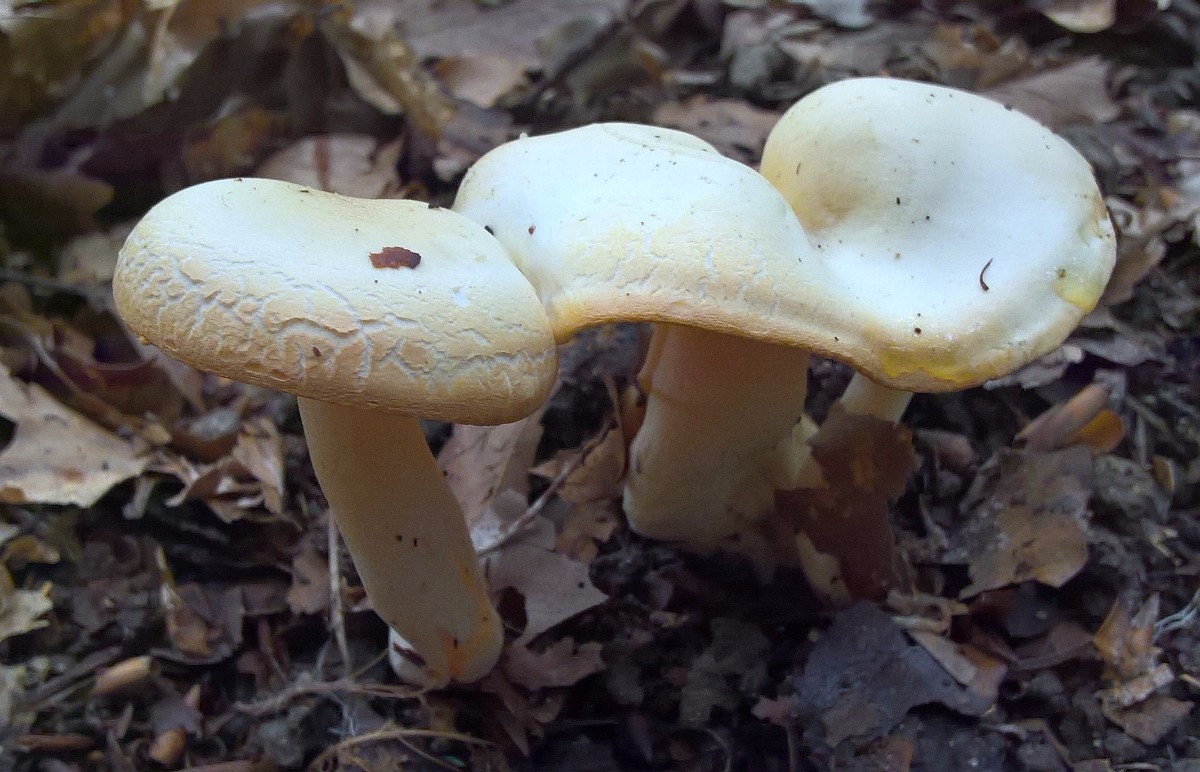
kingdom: Fungi
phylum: Basidiomycota
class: Agaricomycetes
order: Agaricales
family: Hygrophoraceae
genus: Hygrophorus
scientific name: Hygrophorus discoxanthus
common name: ildelugtende sneglehat
